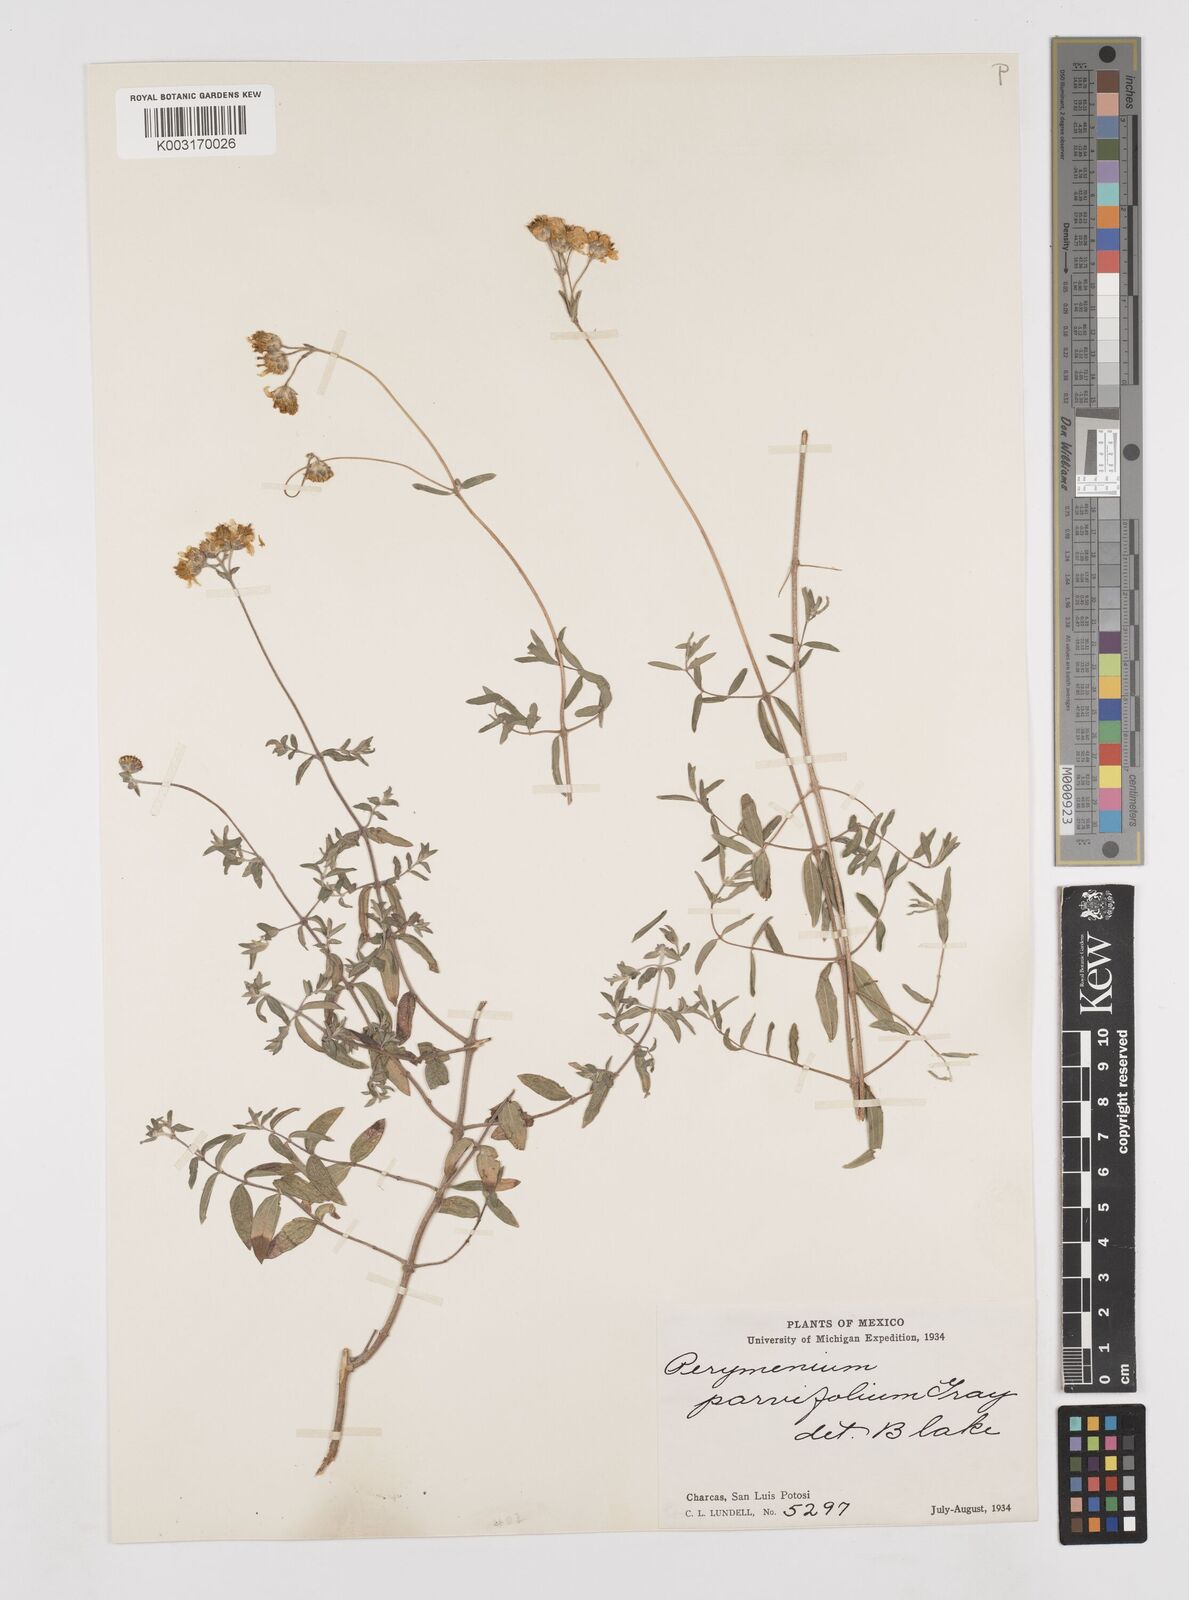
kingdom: Plantae
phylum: Tracheophyta
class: Magnoliopsida
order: Asterales
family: Asteraceae
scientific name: Asteraceae
